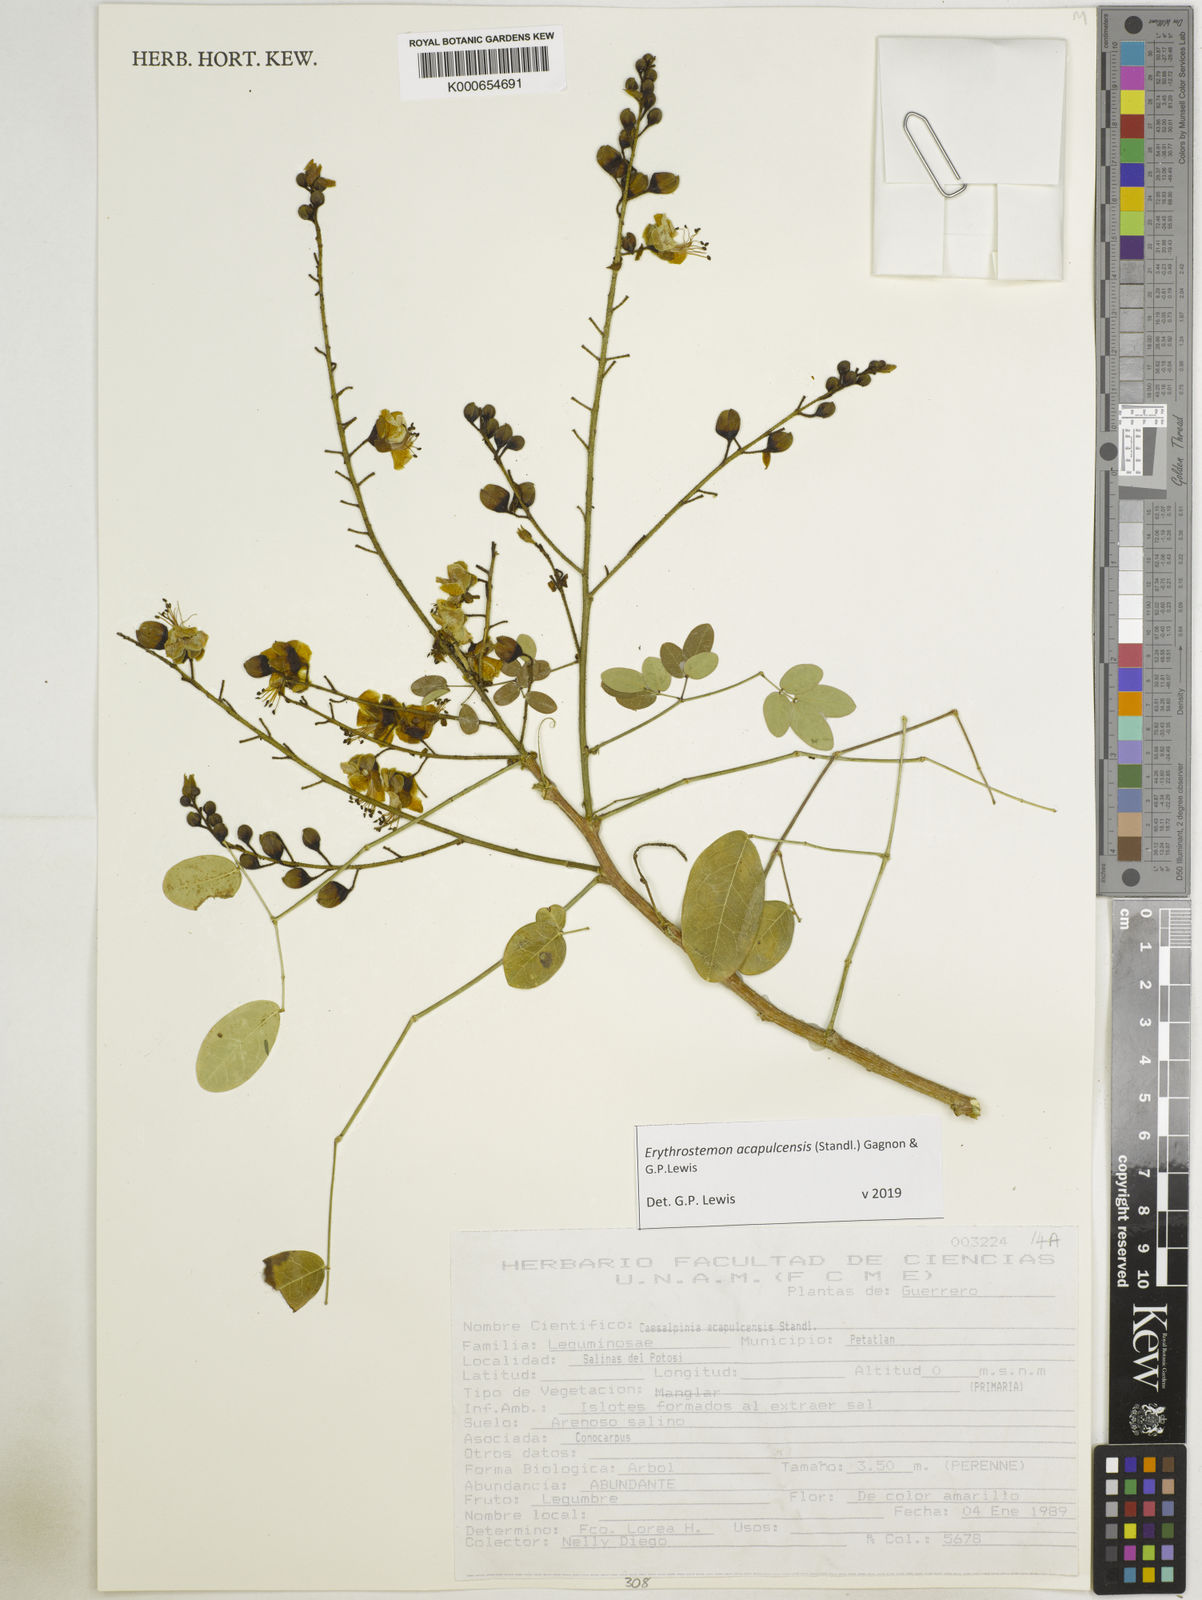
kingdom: Plantae
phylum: Tracheophyta
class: Magnoliopsida
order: Fabales
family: Fabaceae
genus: Erythrostemon
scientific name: Erythrostemon acapulcensis
